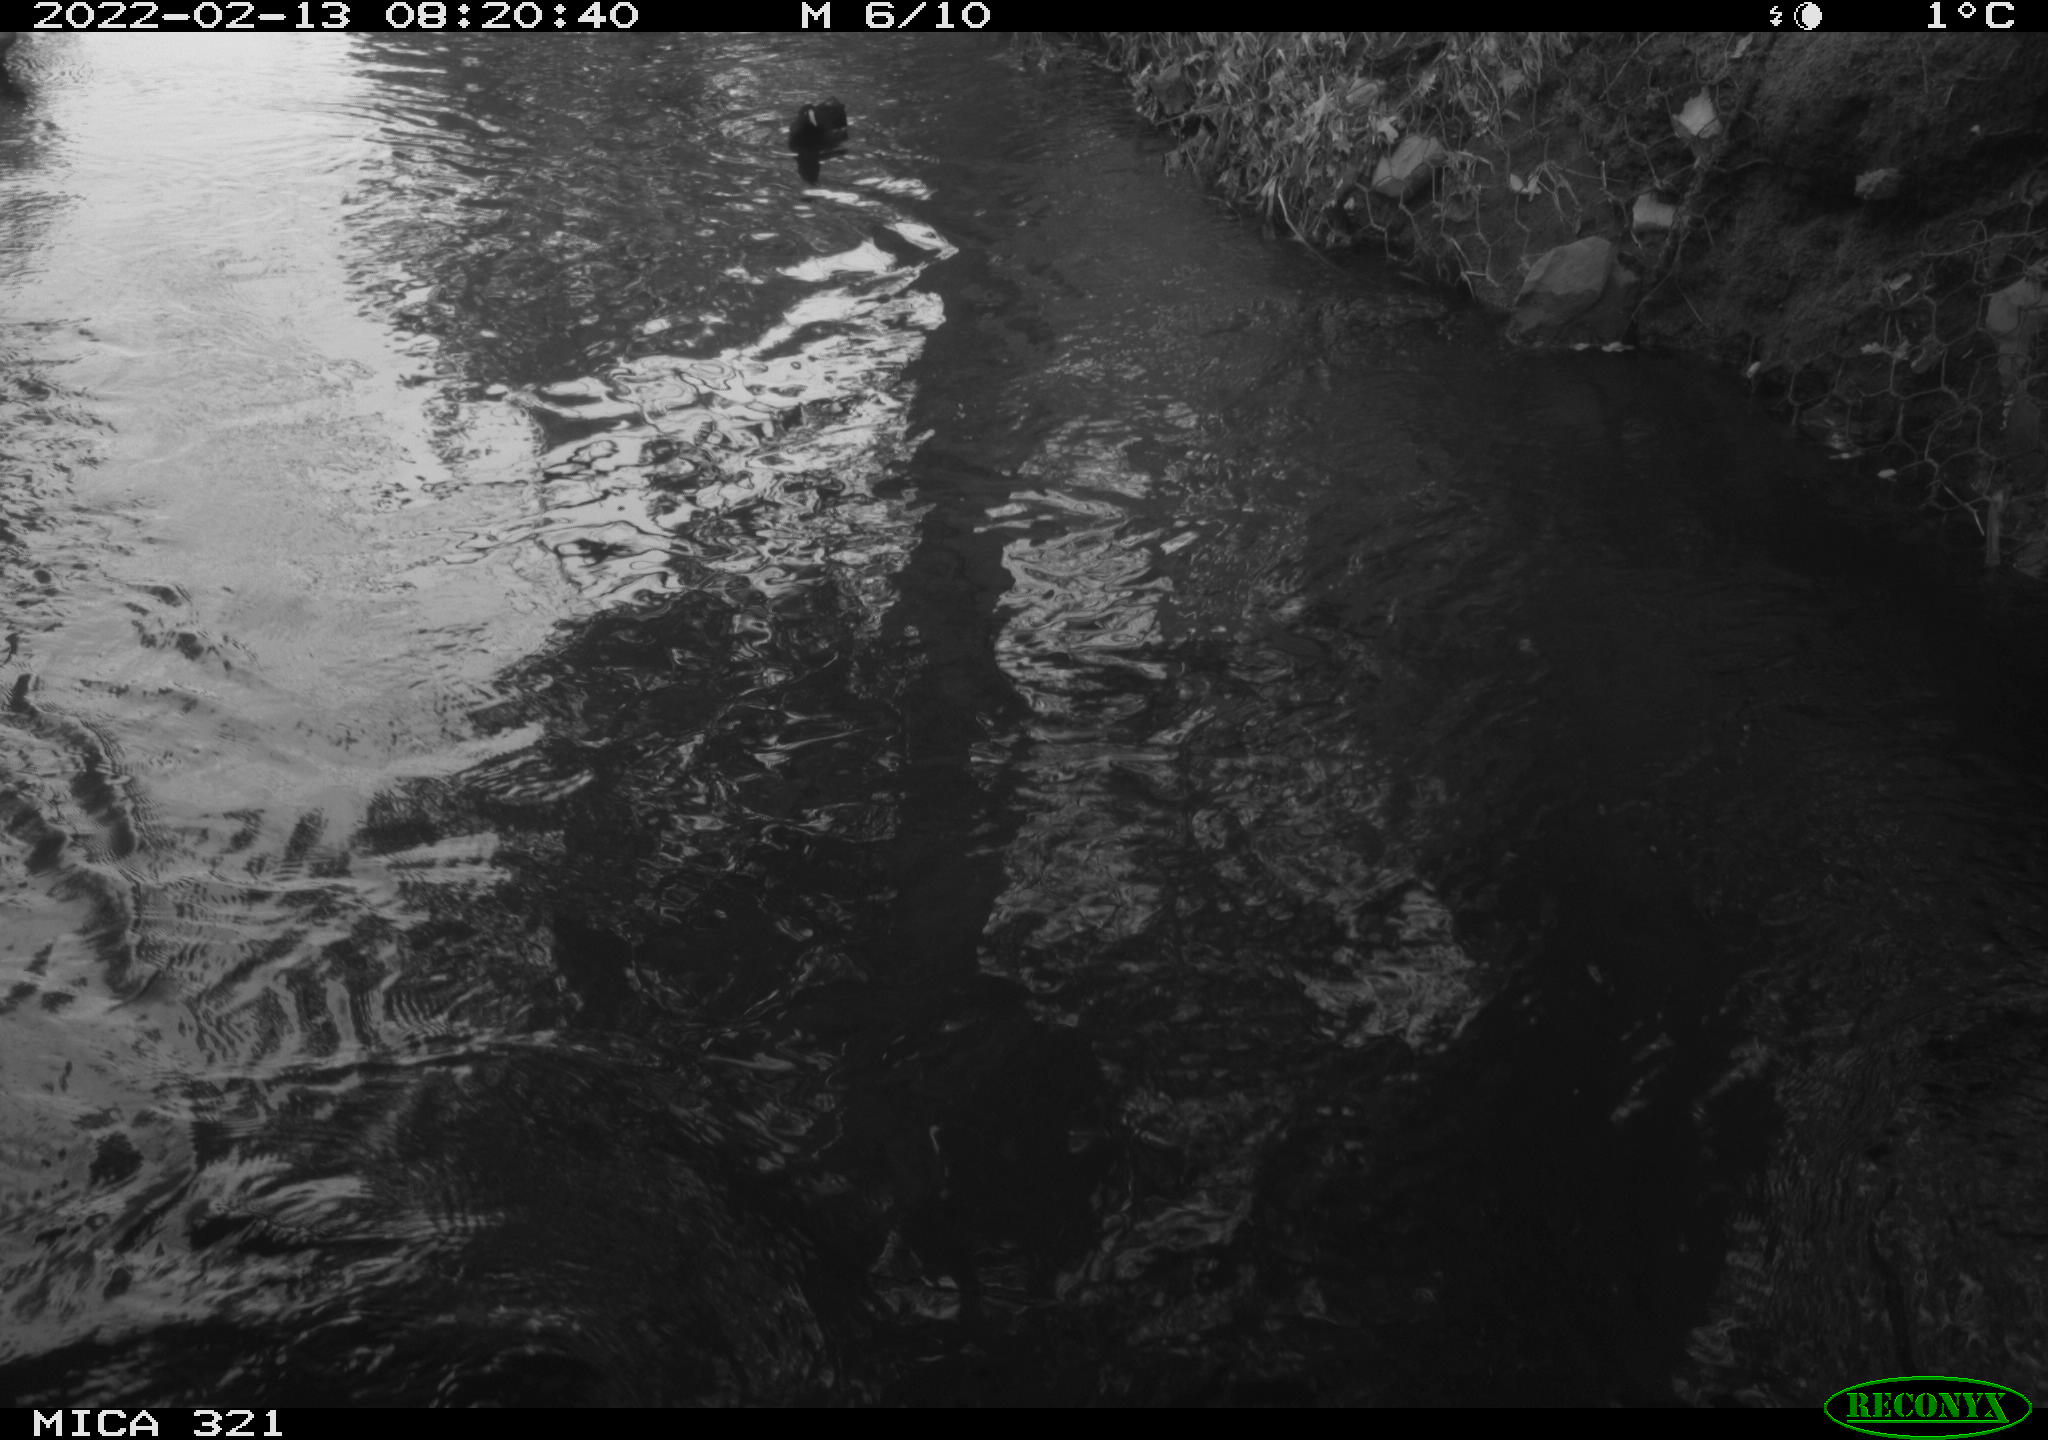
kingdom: Animalia
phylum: Chordata
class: Aves
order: Gruiformes
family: Rallidae
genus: Gallinula
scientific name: Gallinula chloropus
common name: Common moorhen
